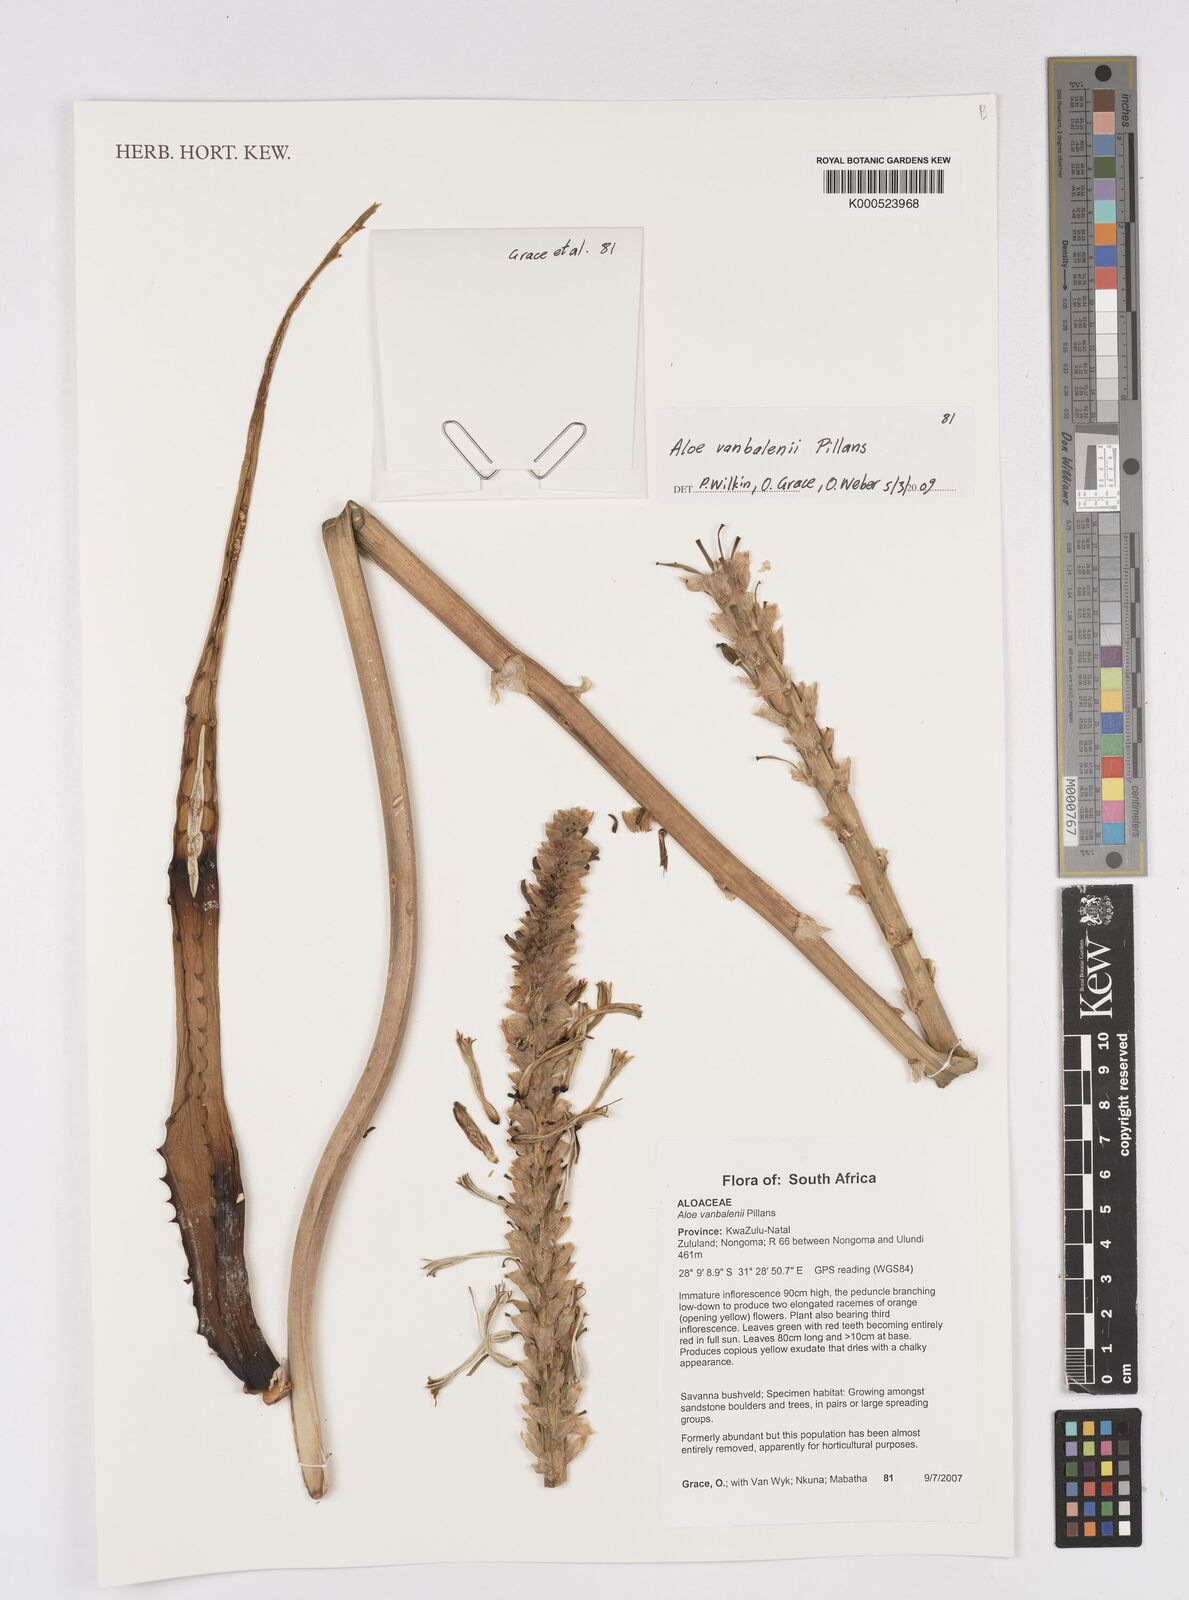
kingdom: Plantae
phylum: Tracheophyta
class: Liliopsida
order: Asparagales
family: Asphodelaceae
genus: Aloe
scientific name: Aloe vanbalenii
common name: Van balen's aloe
